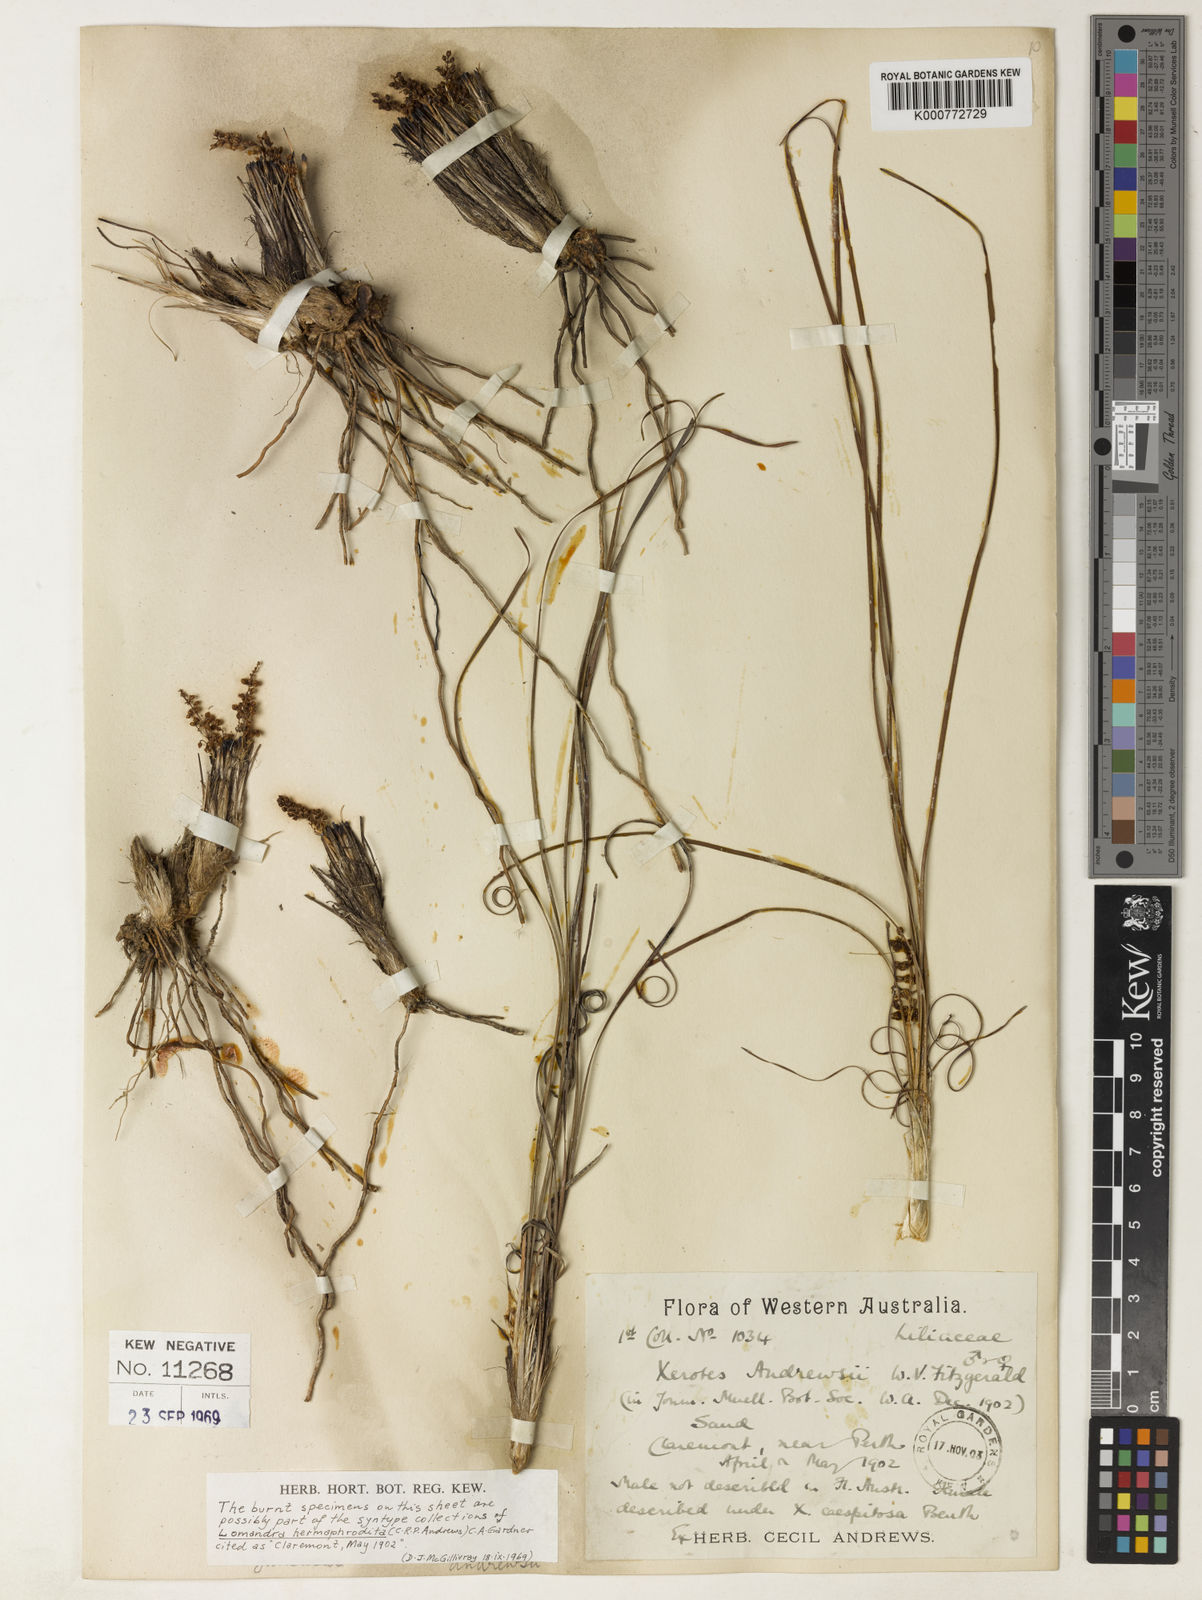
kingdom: Plantae
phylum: Tracheophyta
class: Liliopsida
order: Asparagales
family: Asparagaceae
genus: Lomandra
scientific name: Lomandra
